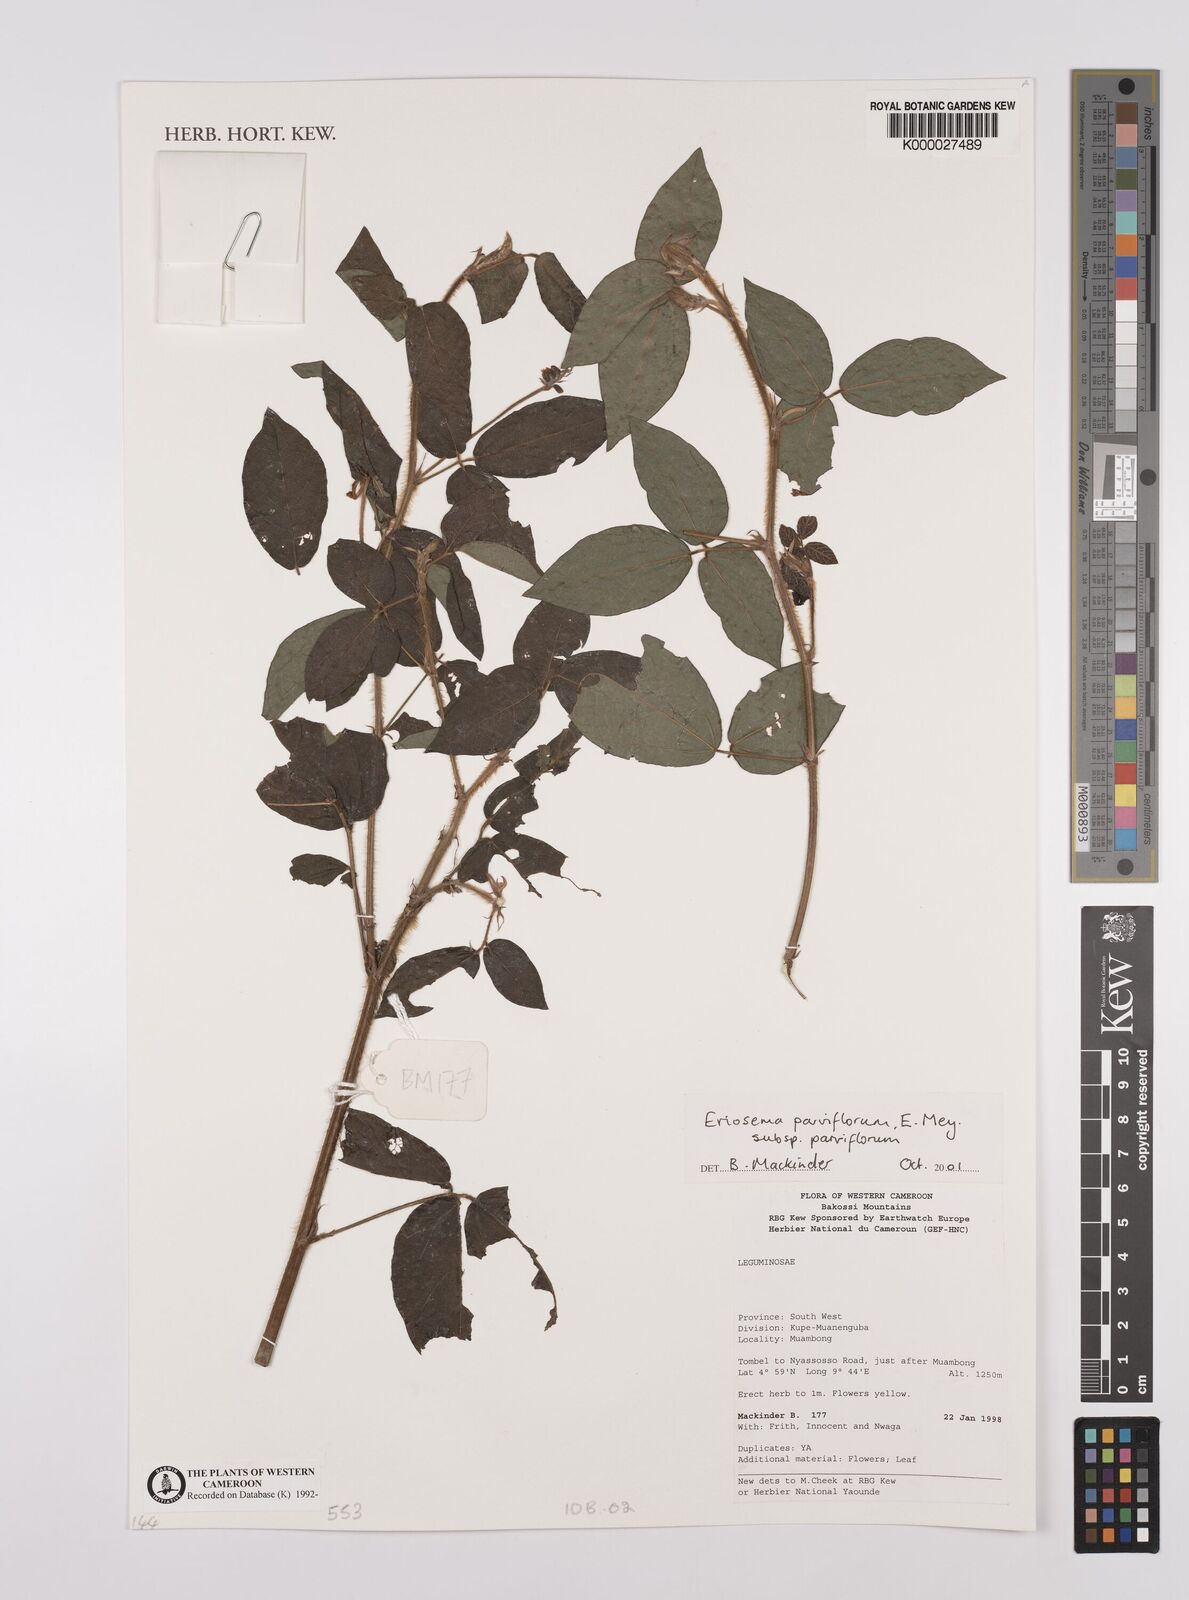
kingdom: Plantae
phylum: Tracheophyta
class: Magnoliopsida
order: Fabales
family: Fabaceae
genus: Eriosema
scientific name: Eriosema parviflorum
